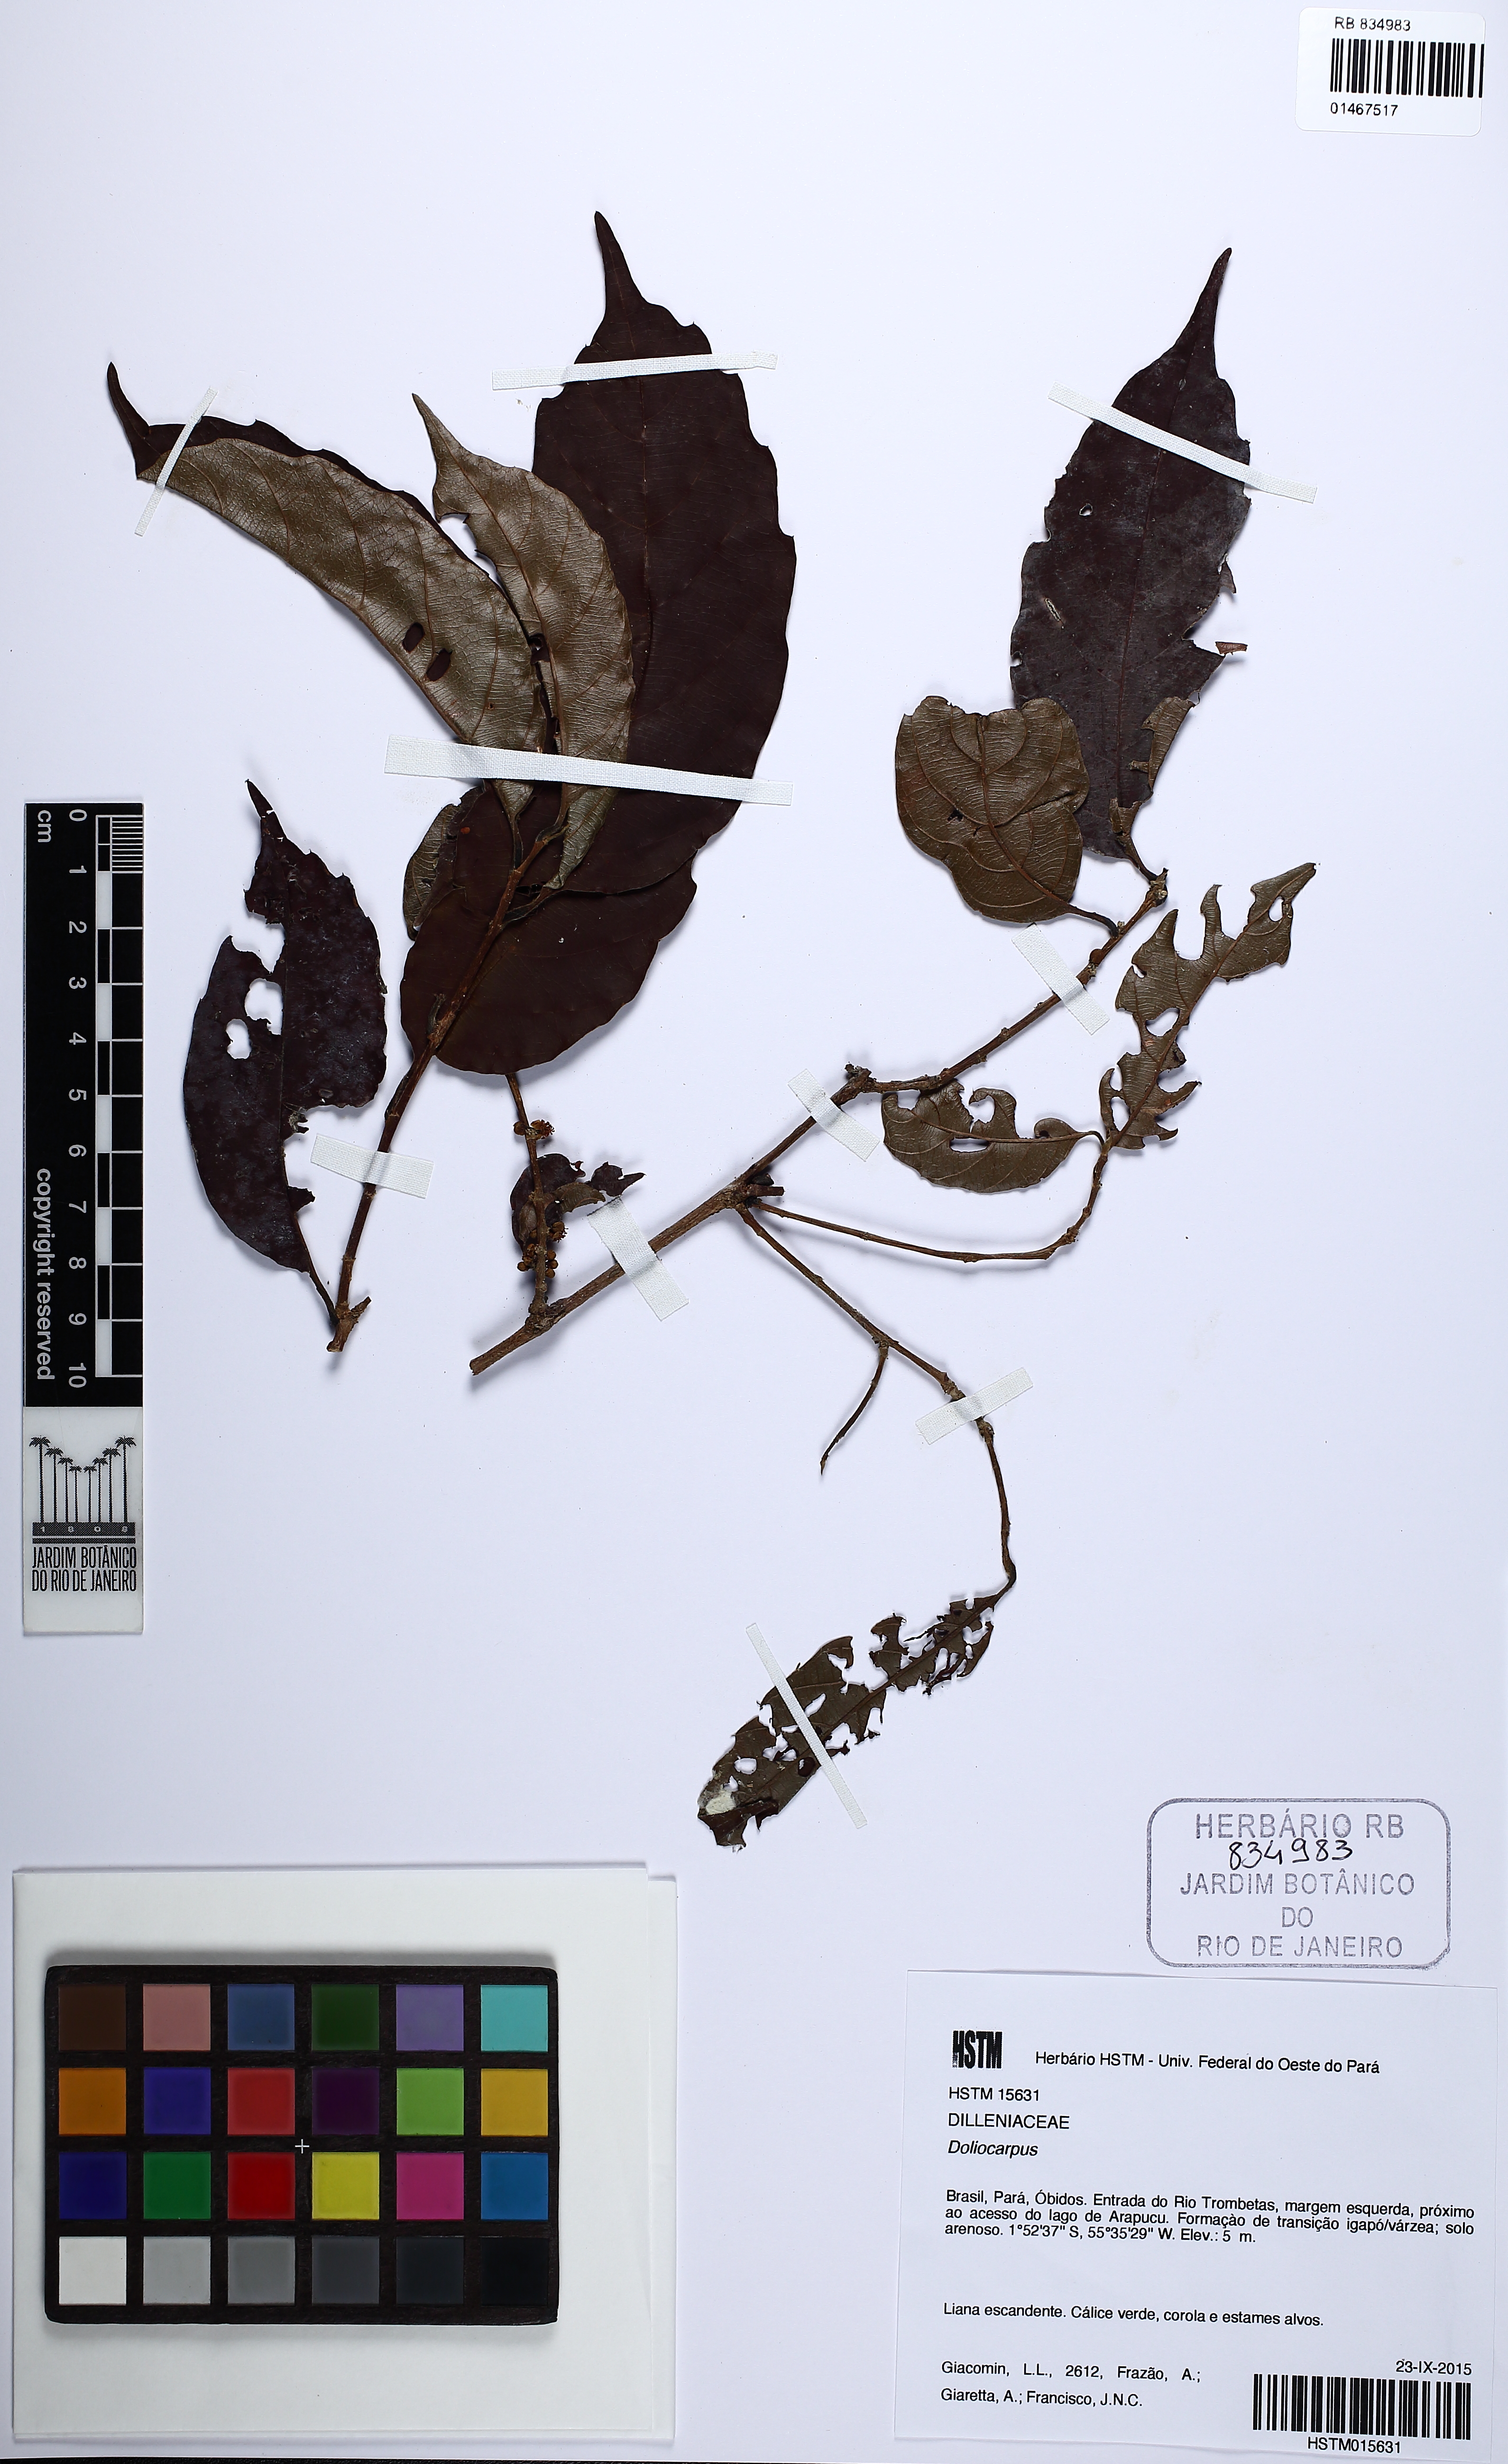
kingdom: Plantae
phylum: Tracheophyta
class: Magnoliopsida
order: Dilleniales
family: Dilleniaceae
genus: Doliocarpus
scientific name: Doliocarpus brevipedicellatus
